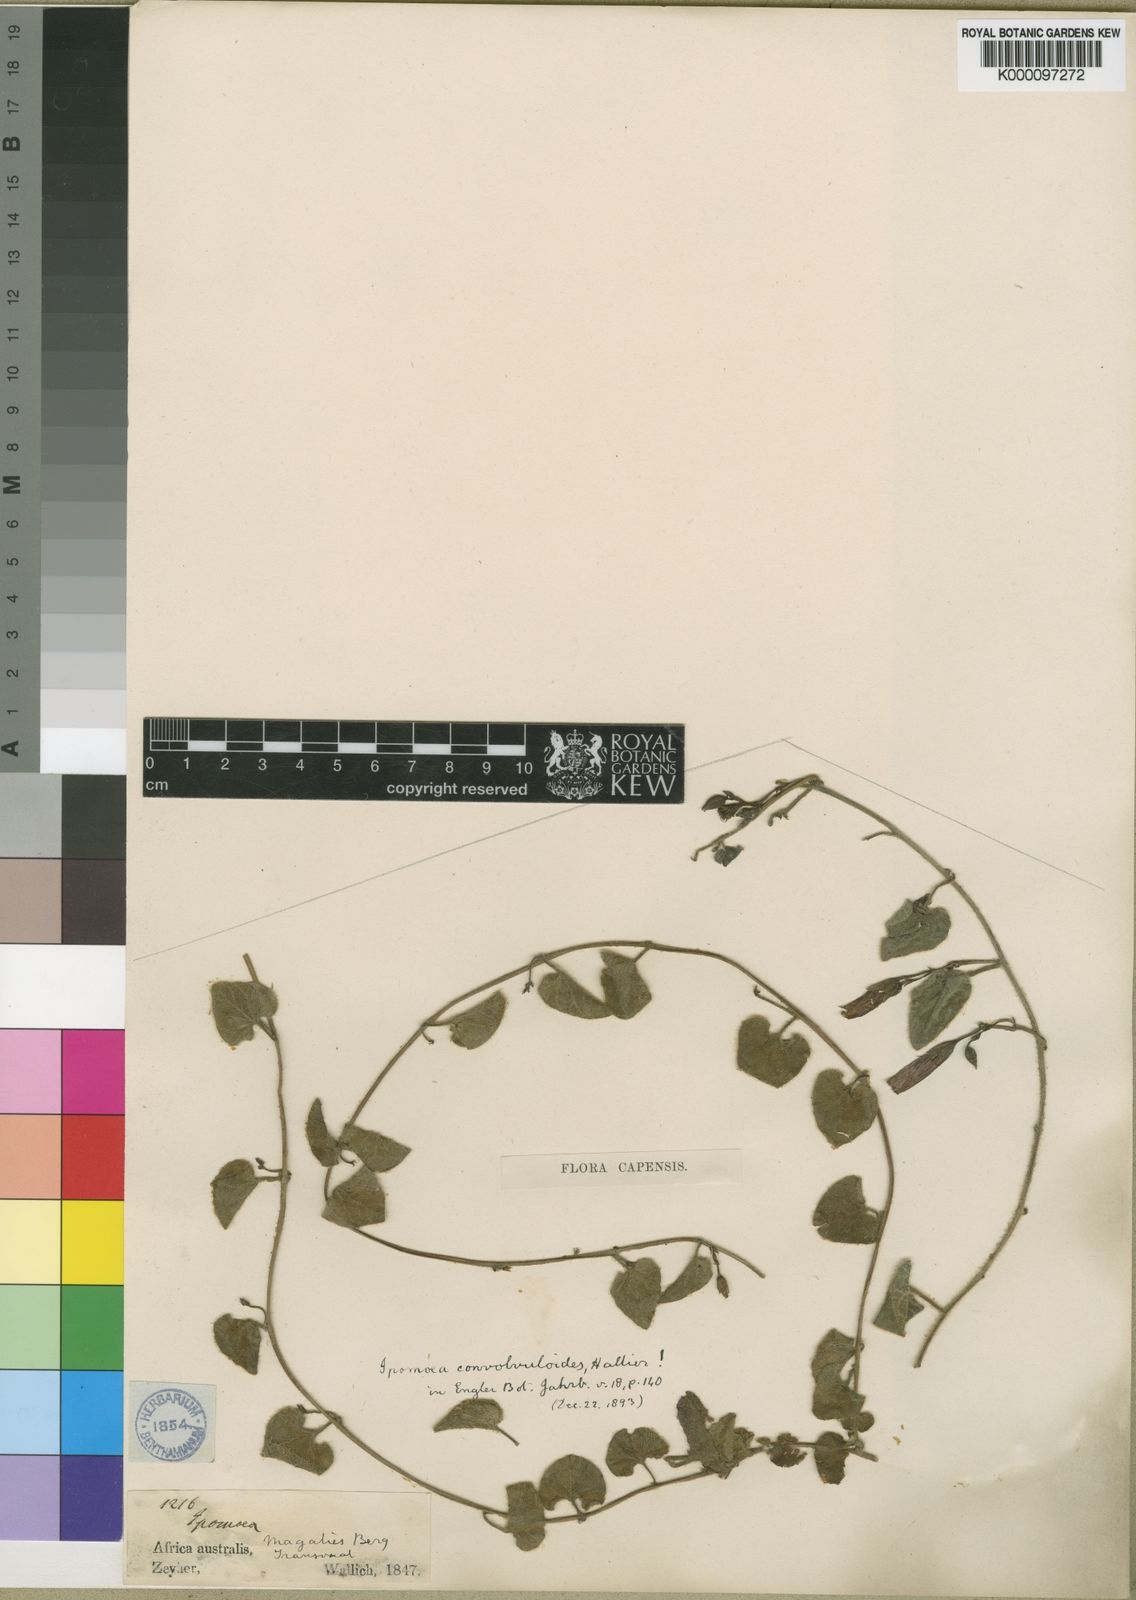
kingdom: Plantae
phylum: Tracheophyta
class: Magnoliopsida
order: Solanales
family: Convolvulaceae
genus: Ipomoea
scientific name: Ipomoea transvaalensis
